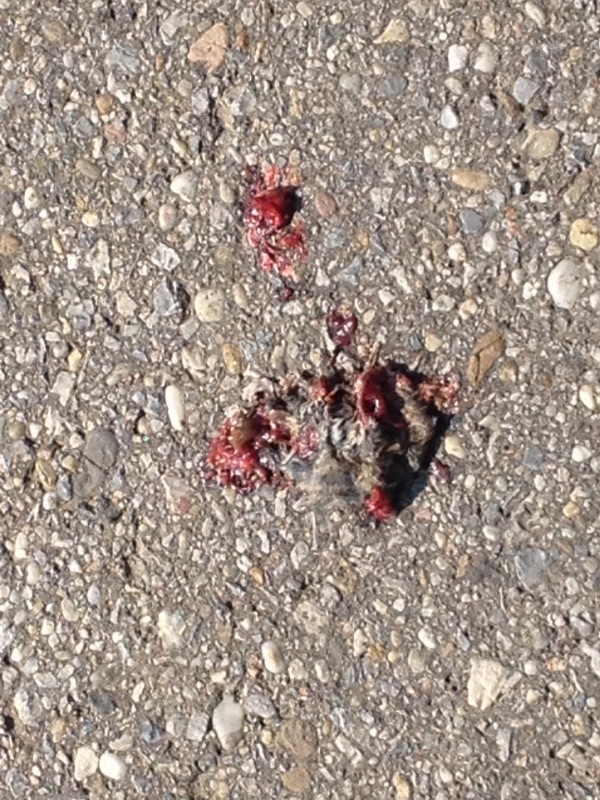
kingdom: Animalia
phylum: Chordata
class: Mammalia
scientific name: Mammalia
